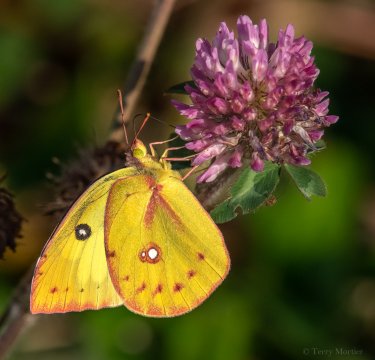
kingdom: Animalia
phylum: Arthropoda
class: Insecta
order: Lepidoptera
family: Pieridae
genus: Zerene
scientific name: Zerene cesonia
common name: Southern Dogface
